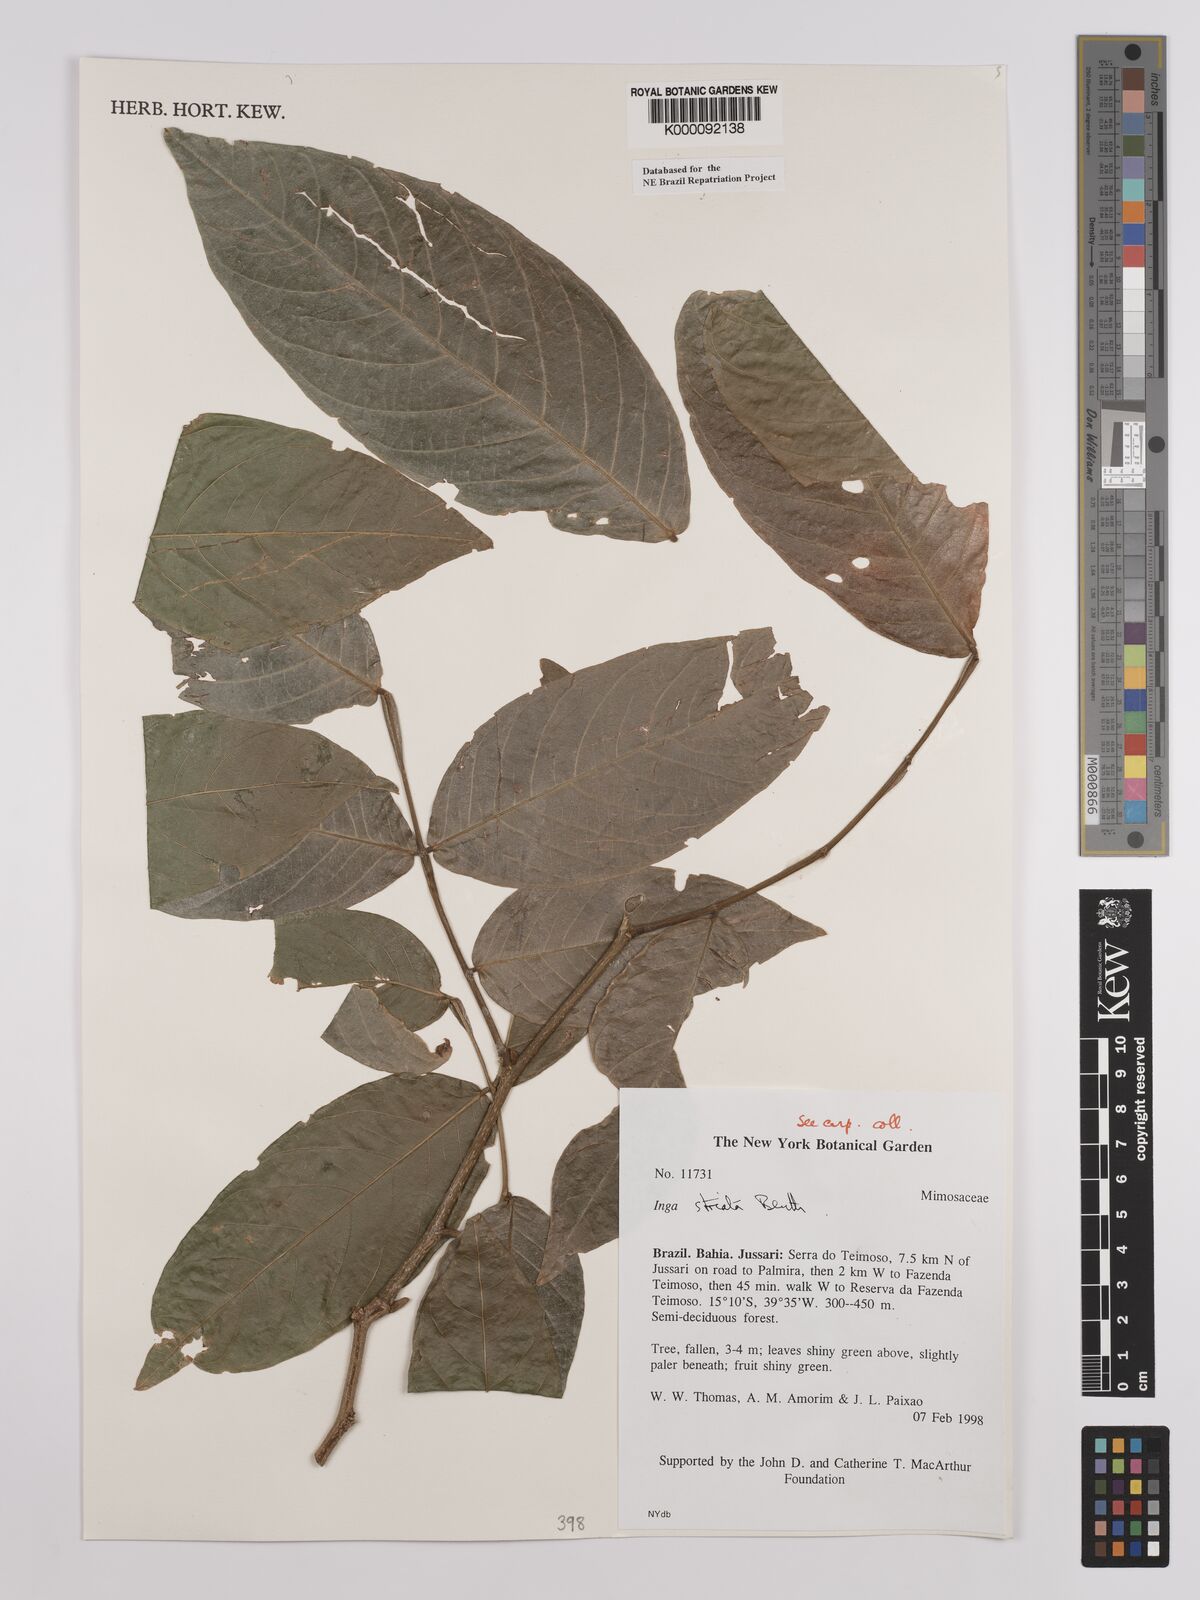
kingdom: Plantae
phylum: Tracheophyta
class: Magnoliopsida
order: Fabales
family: Fabaceae
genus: Inga
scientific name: Inga striata
